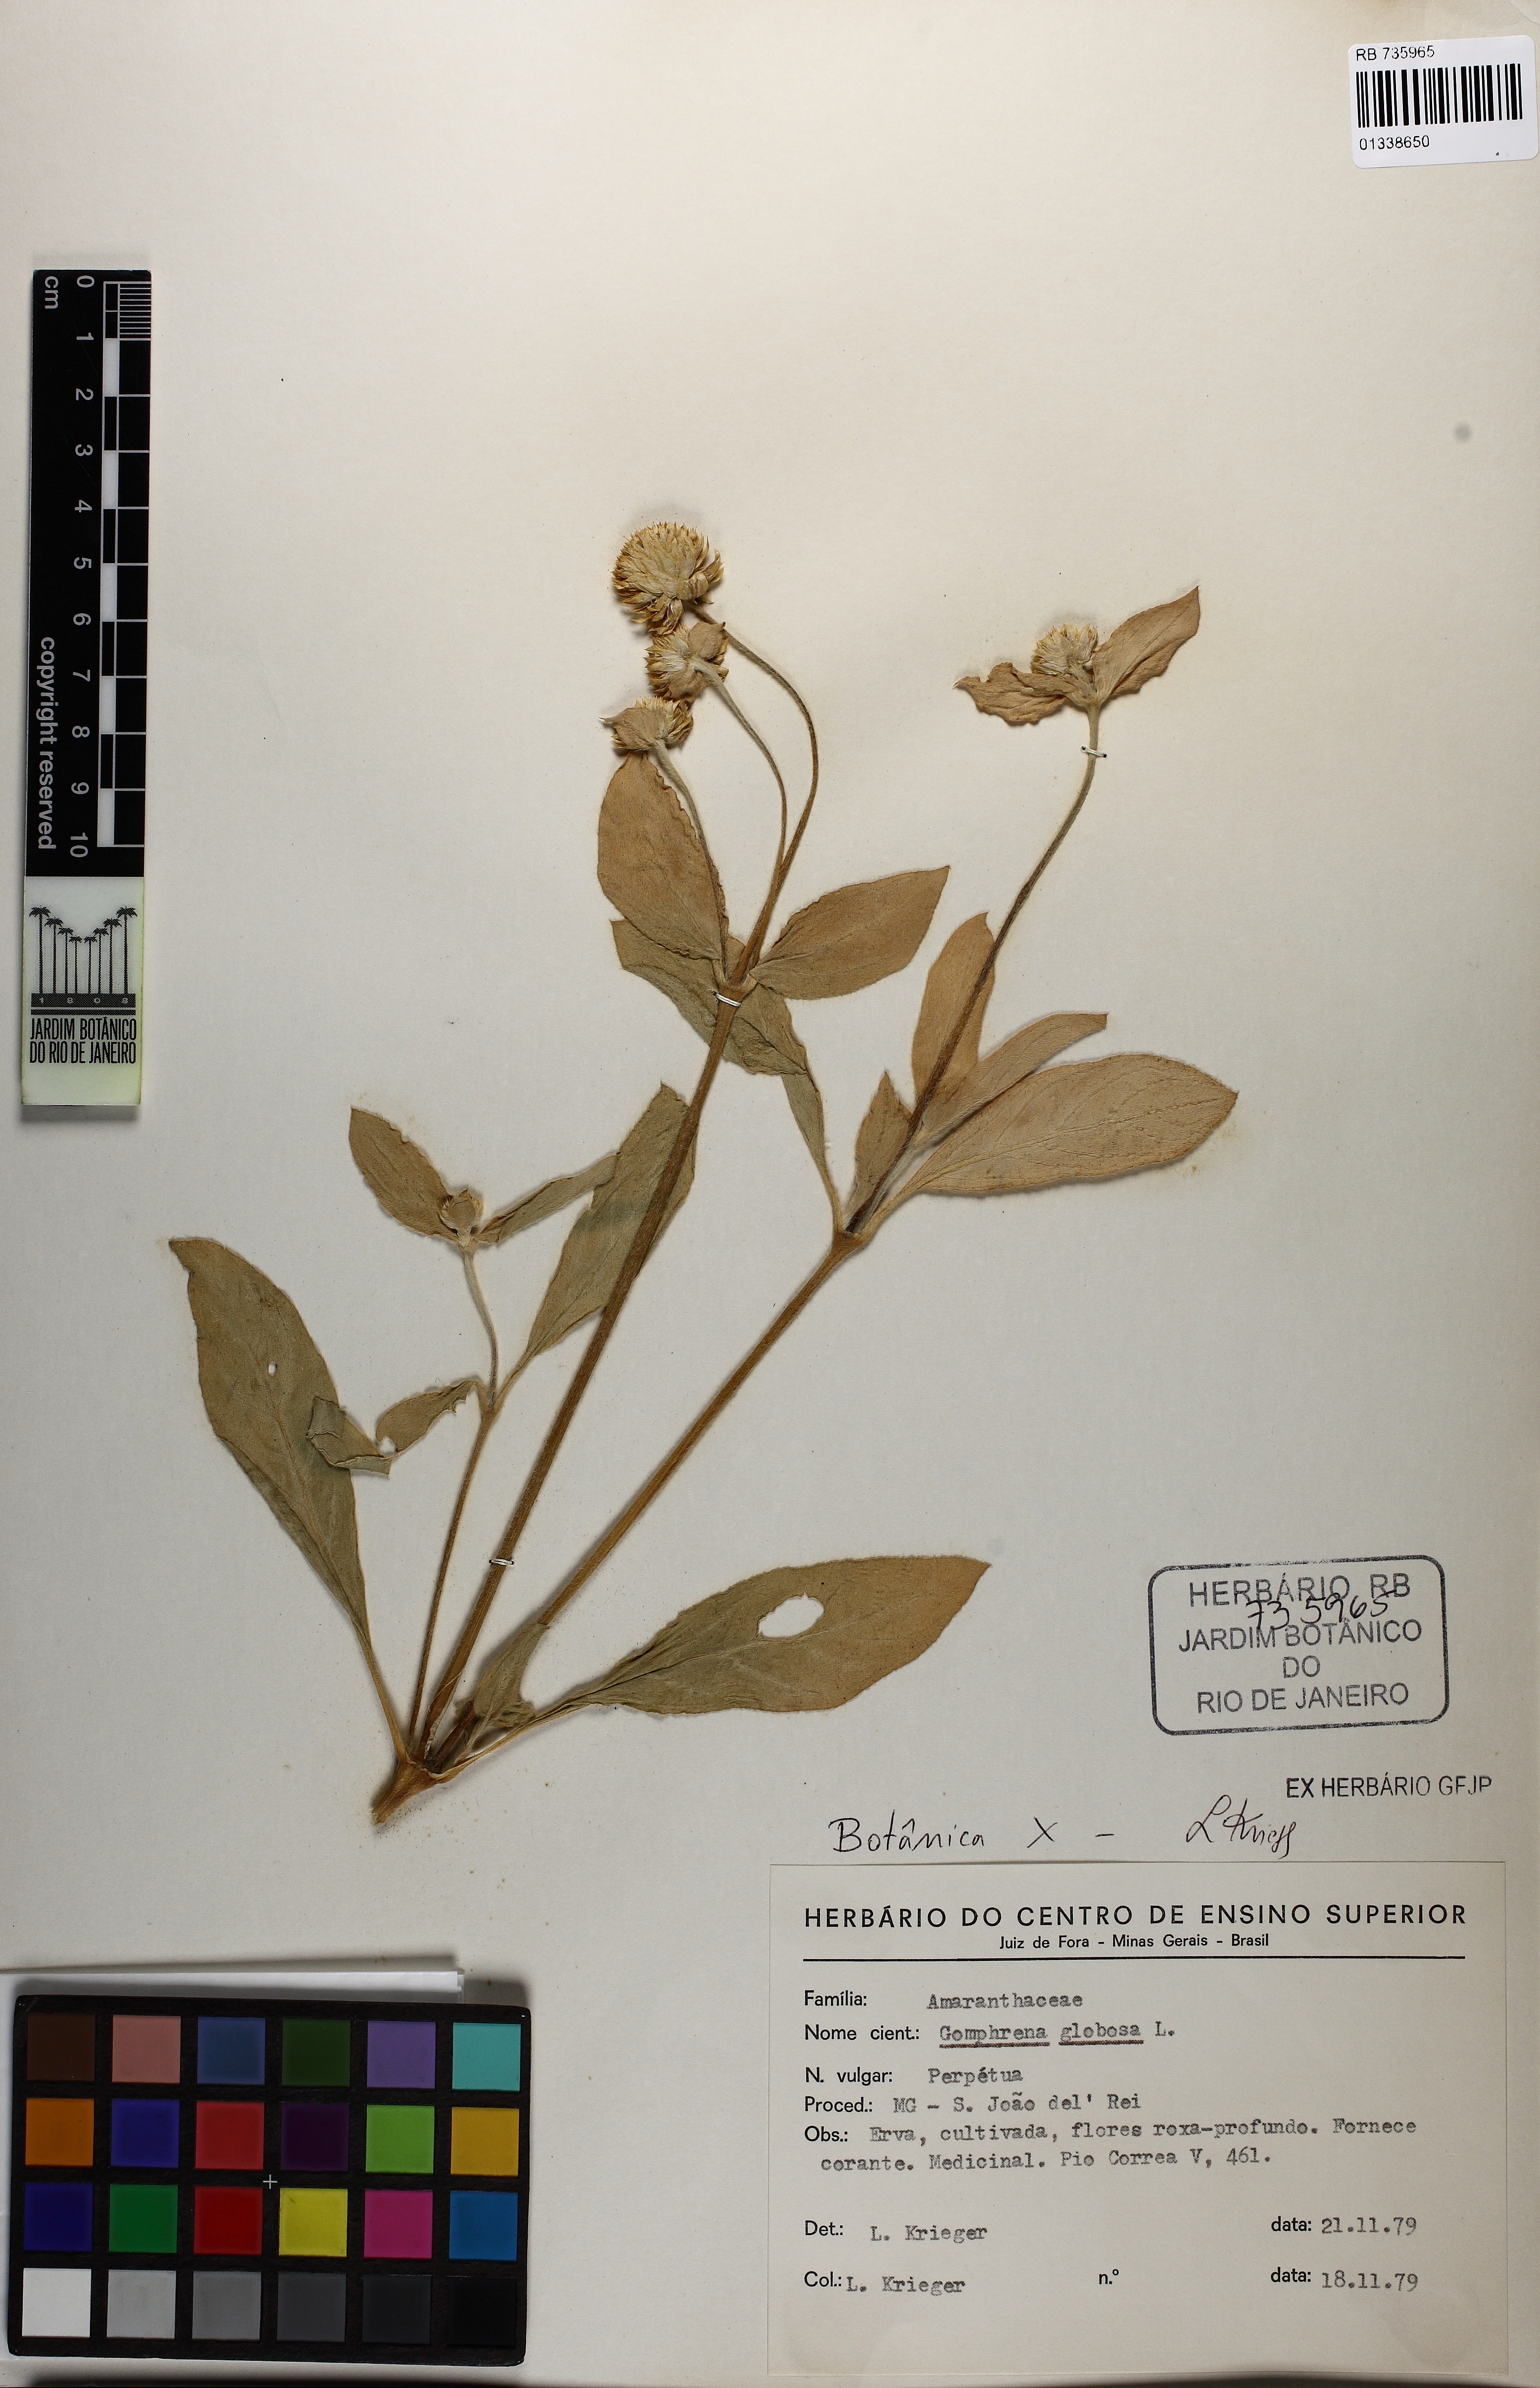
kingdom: Plantae
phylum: Tracheophyta
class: Magnoliopsida
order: Caryophyllales
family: Amaranthaceae
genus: Gomphrena
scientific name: Gomphrena globosa
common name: Common globe amaranth
